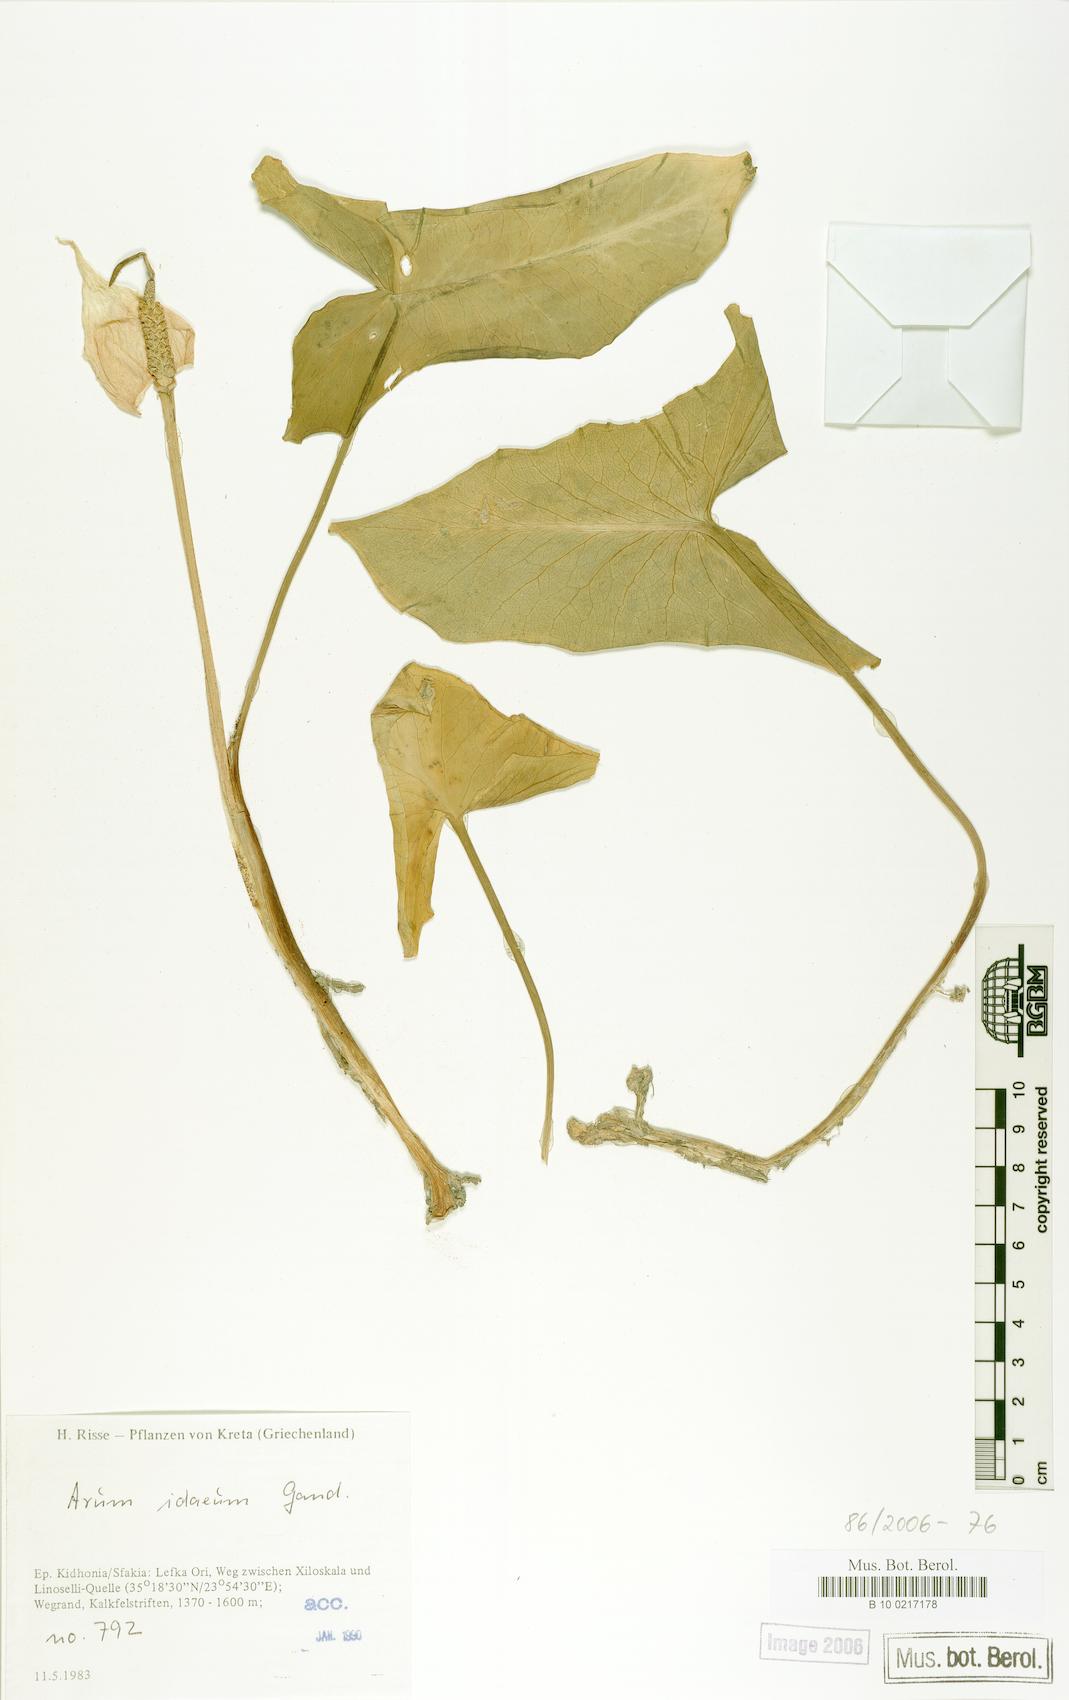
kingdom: Plantae
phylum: Tracheophyta
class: Liliopsida
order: Alismatales
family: Araceae
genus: Arum
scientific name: Arum idaeum
